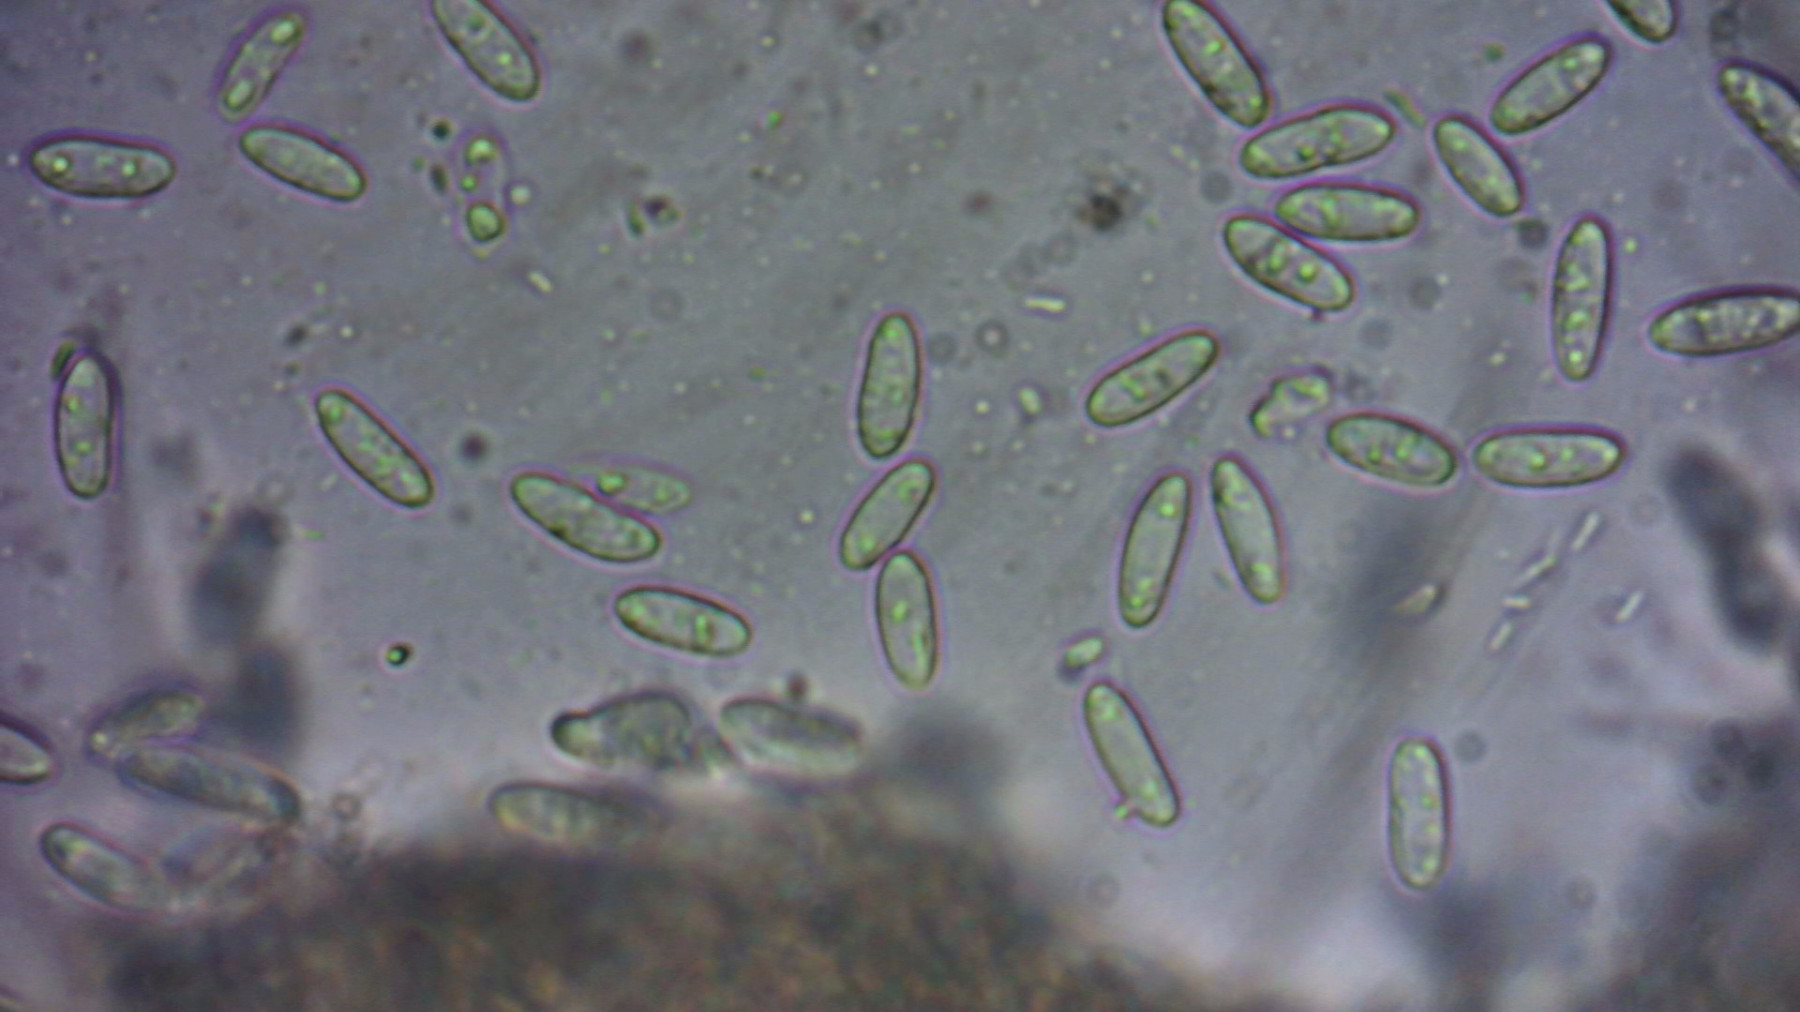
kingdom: Fungi
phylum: Ascomycota
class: Leotiomycetes
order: Helotiales
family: Pezizellaceae
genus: Calycina
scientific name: Calycina citrina
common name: almindelig gulskive
